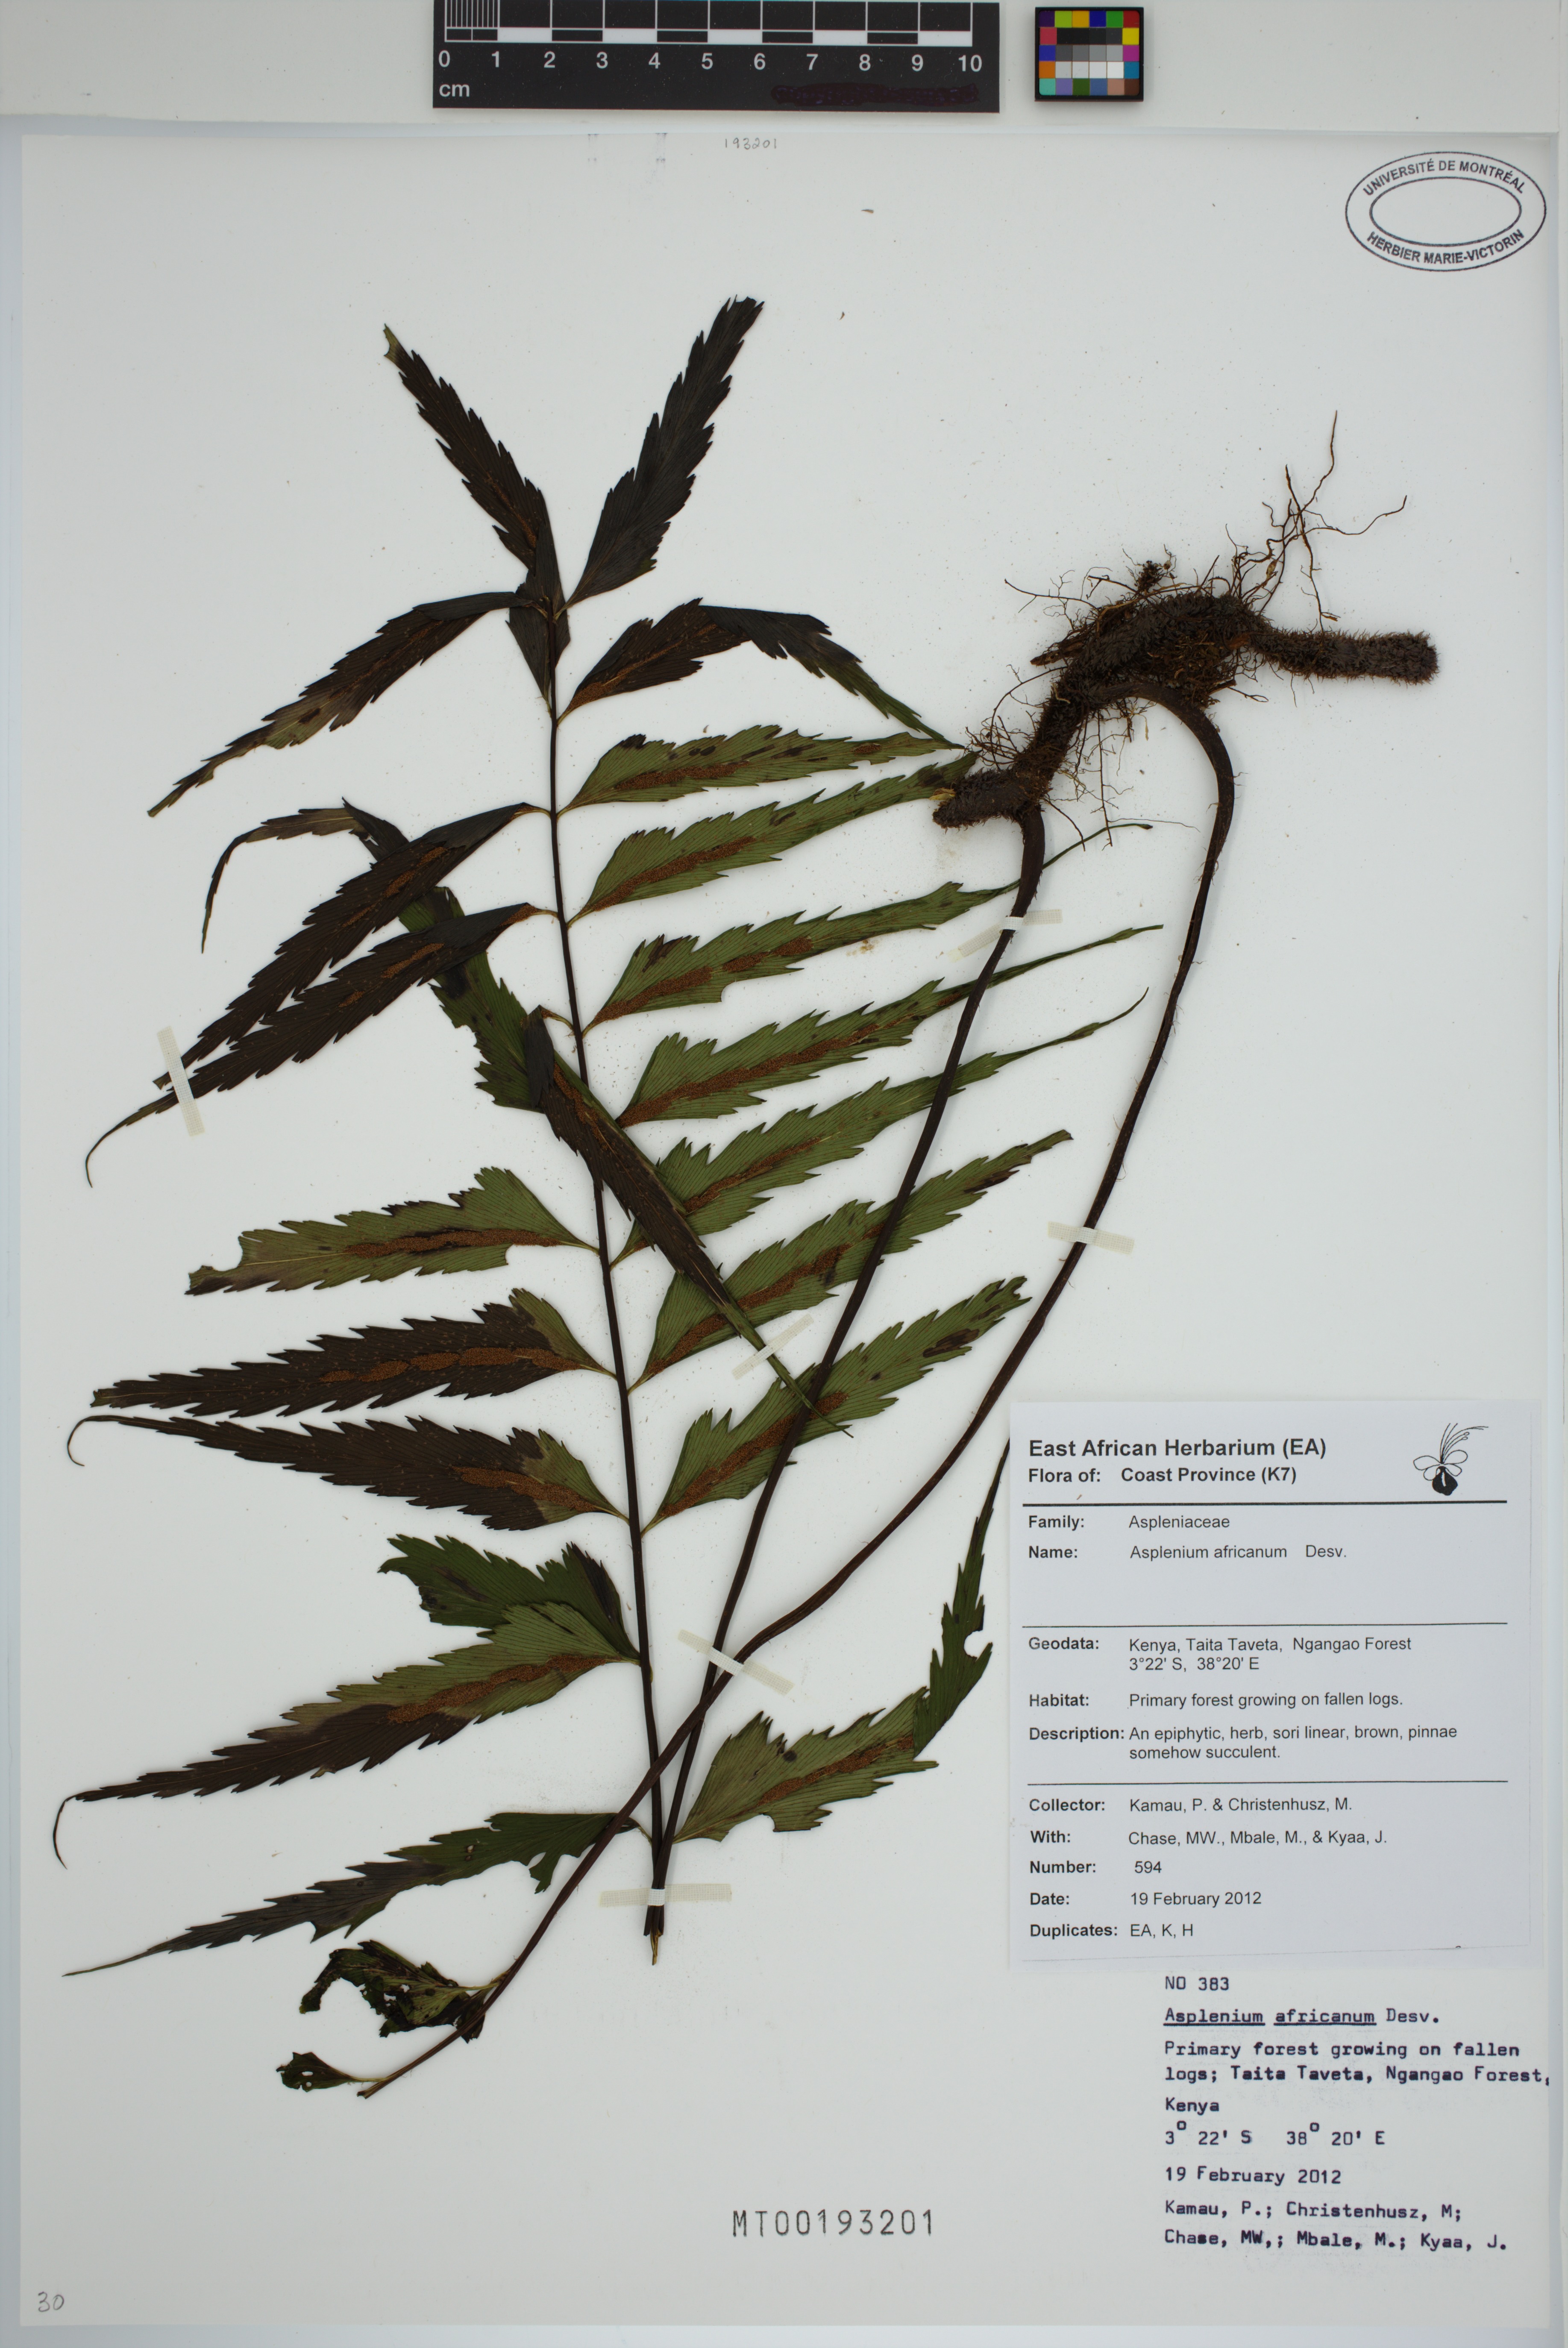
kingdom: Plantae
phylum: Tracheophyta
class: Polypodiopsida
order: Polypodiales
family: Aspleniaceae
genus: Asplenium
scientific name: Asplenium africanum
